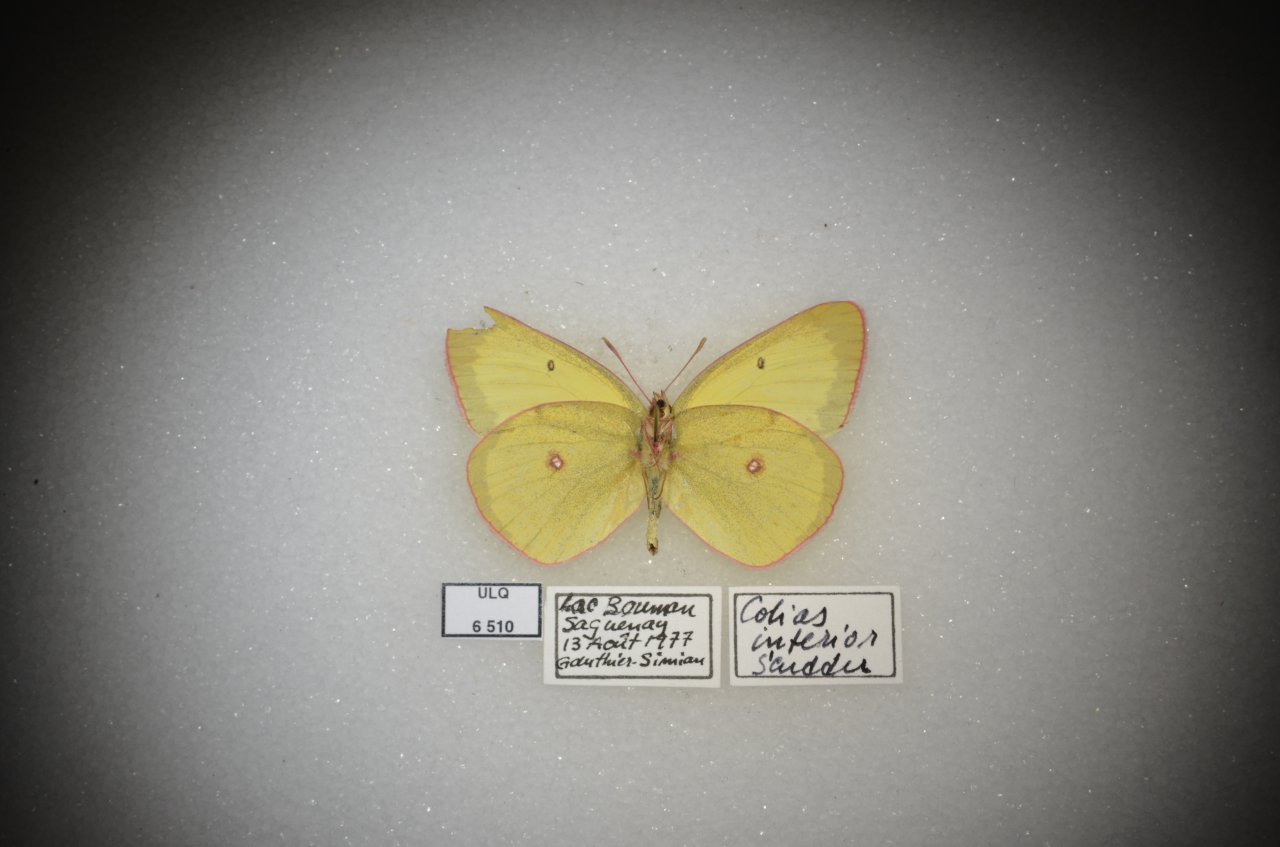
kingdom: Animalia
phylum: Arthropoda
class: Insecta
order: Lepidoptera
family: Pieridae
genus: Colias
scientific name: Colias interior
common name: Pink-edged Sulphur
